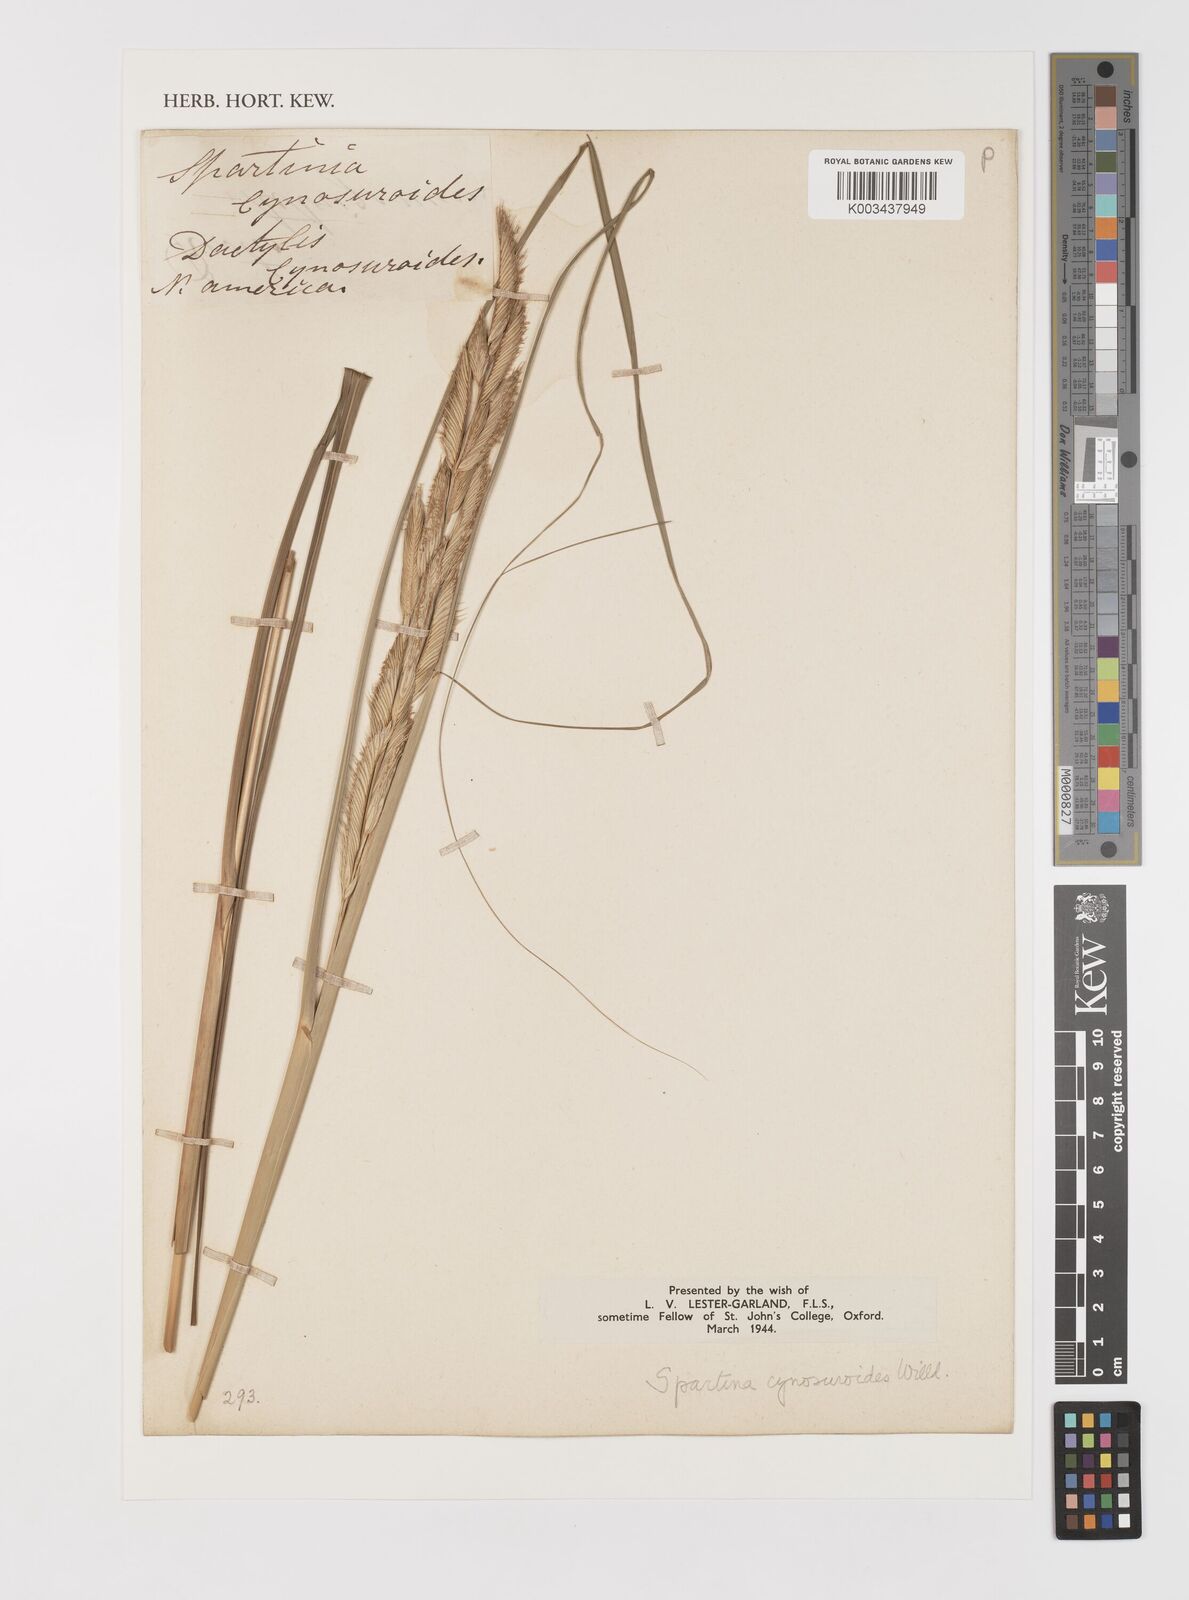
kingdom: Plantae
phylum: Tracheophyta
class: Liliopsida
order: Poales
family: Poaceae
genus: Sporobolus
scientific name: Sporobolus michauxianus
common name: Freshwater cordgrass
